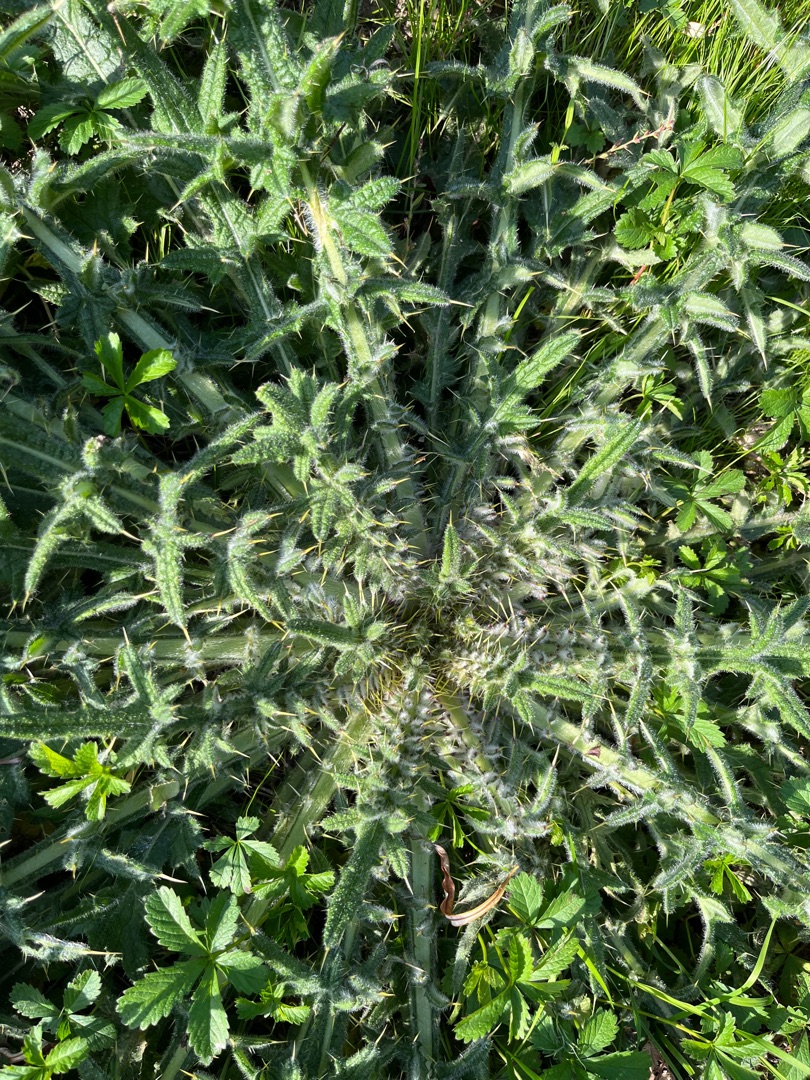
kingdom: Plantae
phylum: Tracheophyta
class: Magnoliopsida
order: Asterales
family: Asteraceae
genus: Cirsium
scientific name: Cirsium vulgare
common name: Horse-tidsel
